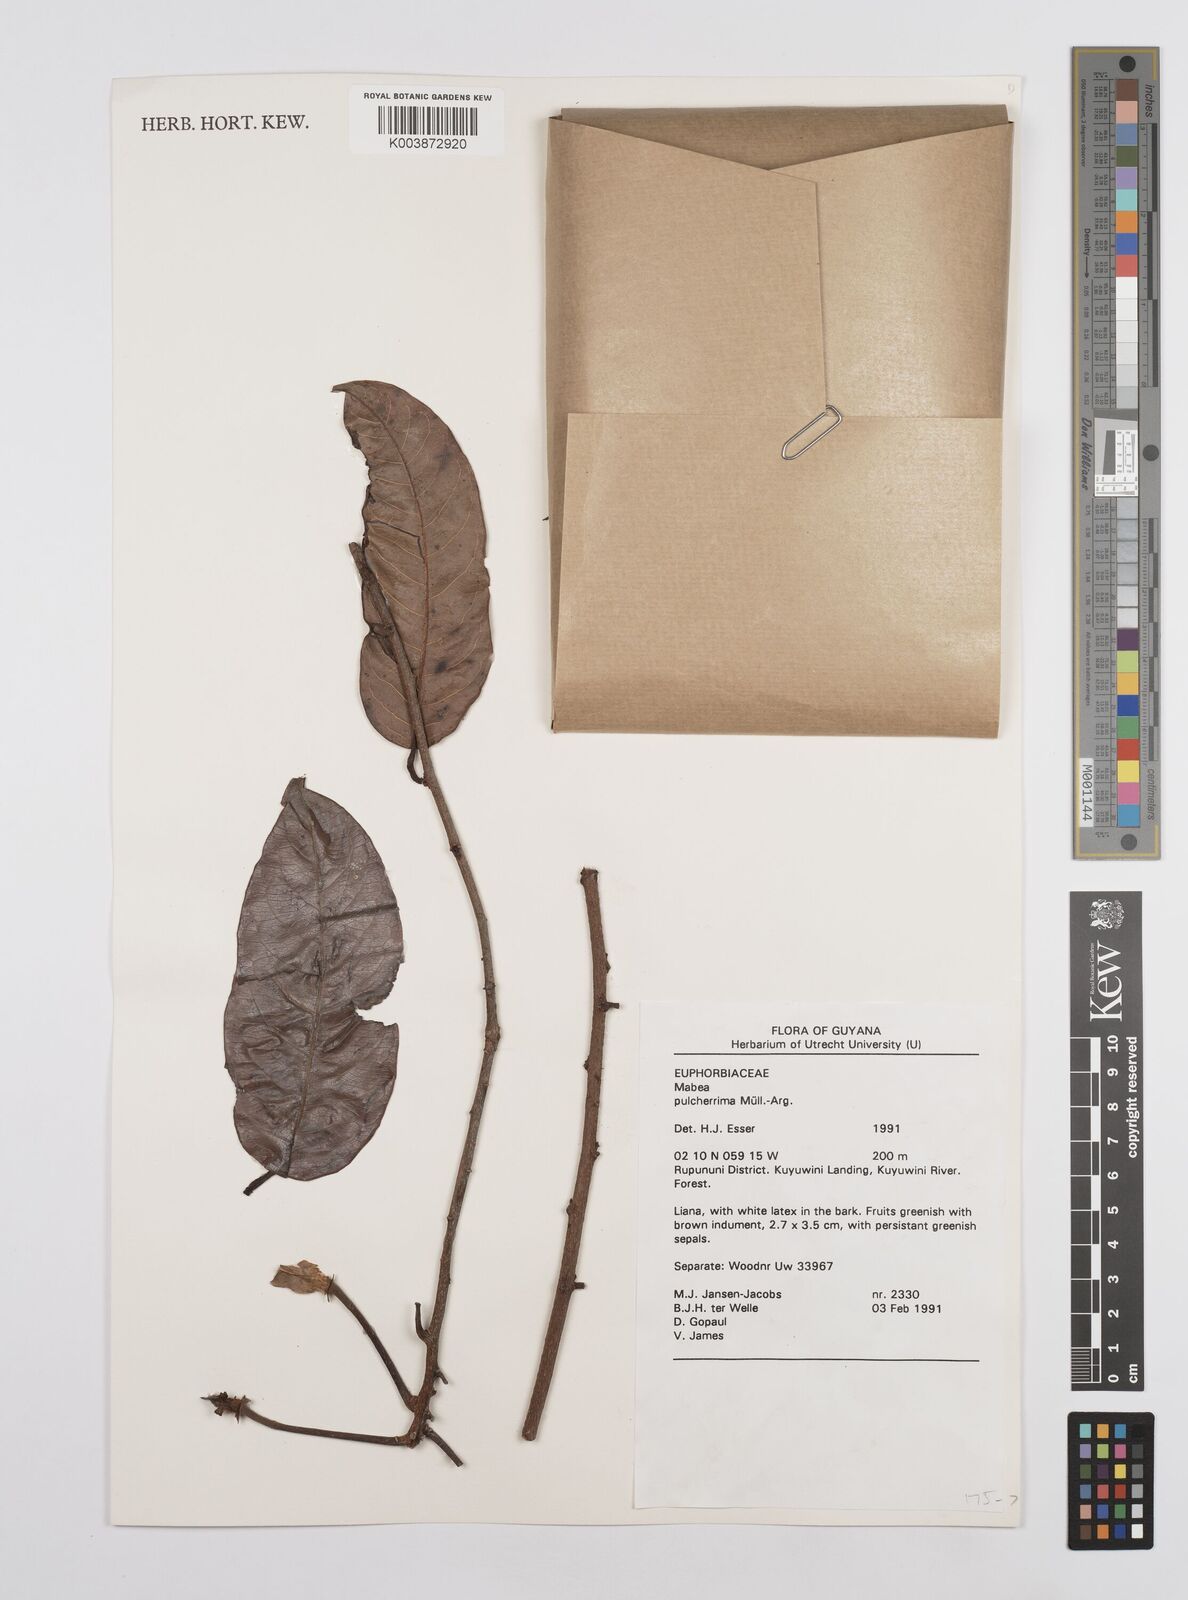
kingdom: Plantae
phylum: Tracheophyta
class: Magnoliopsida
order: Malpighiales
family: Euphorbiaceae
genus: Mabea
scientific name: Mabea pulcherrima
